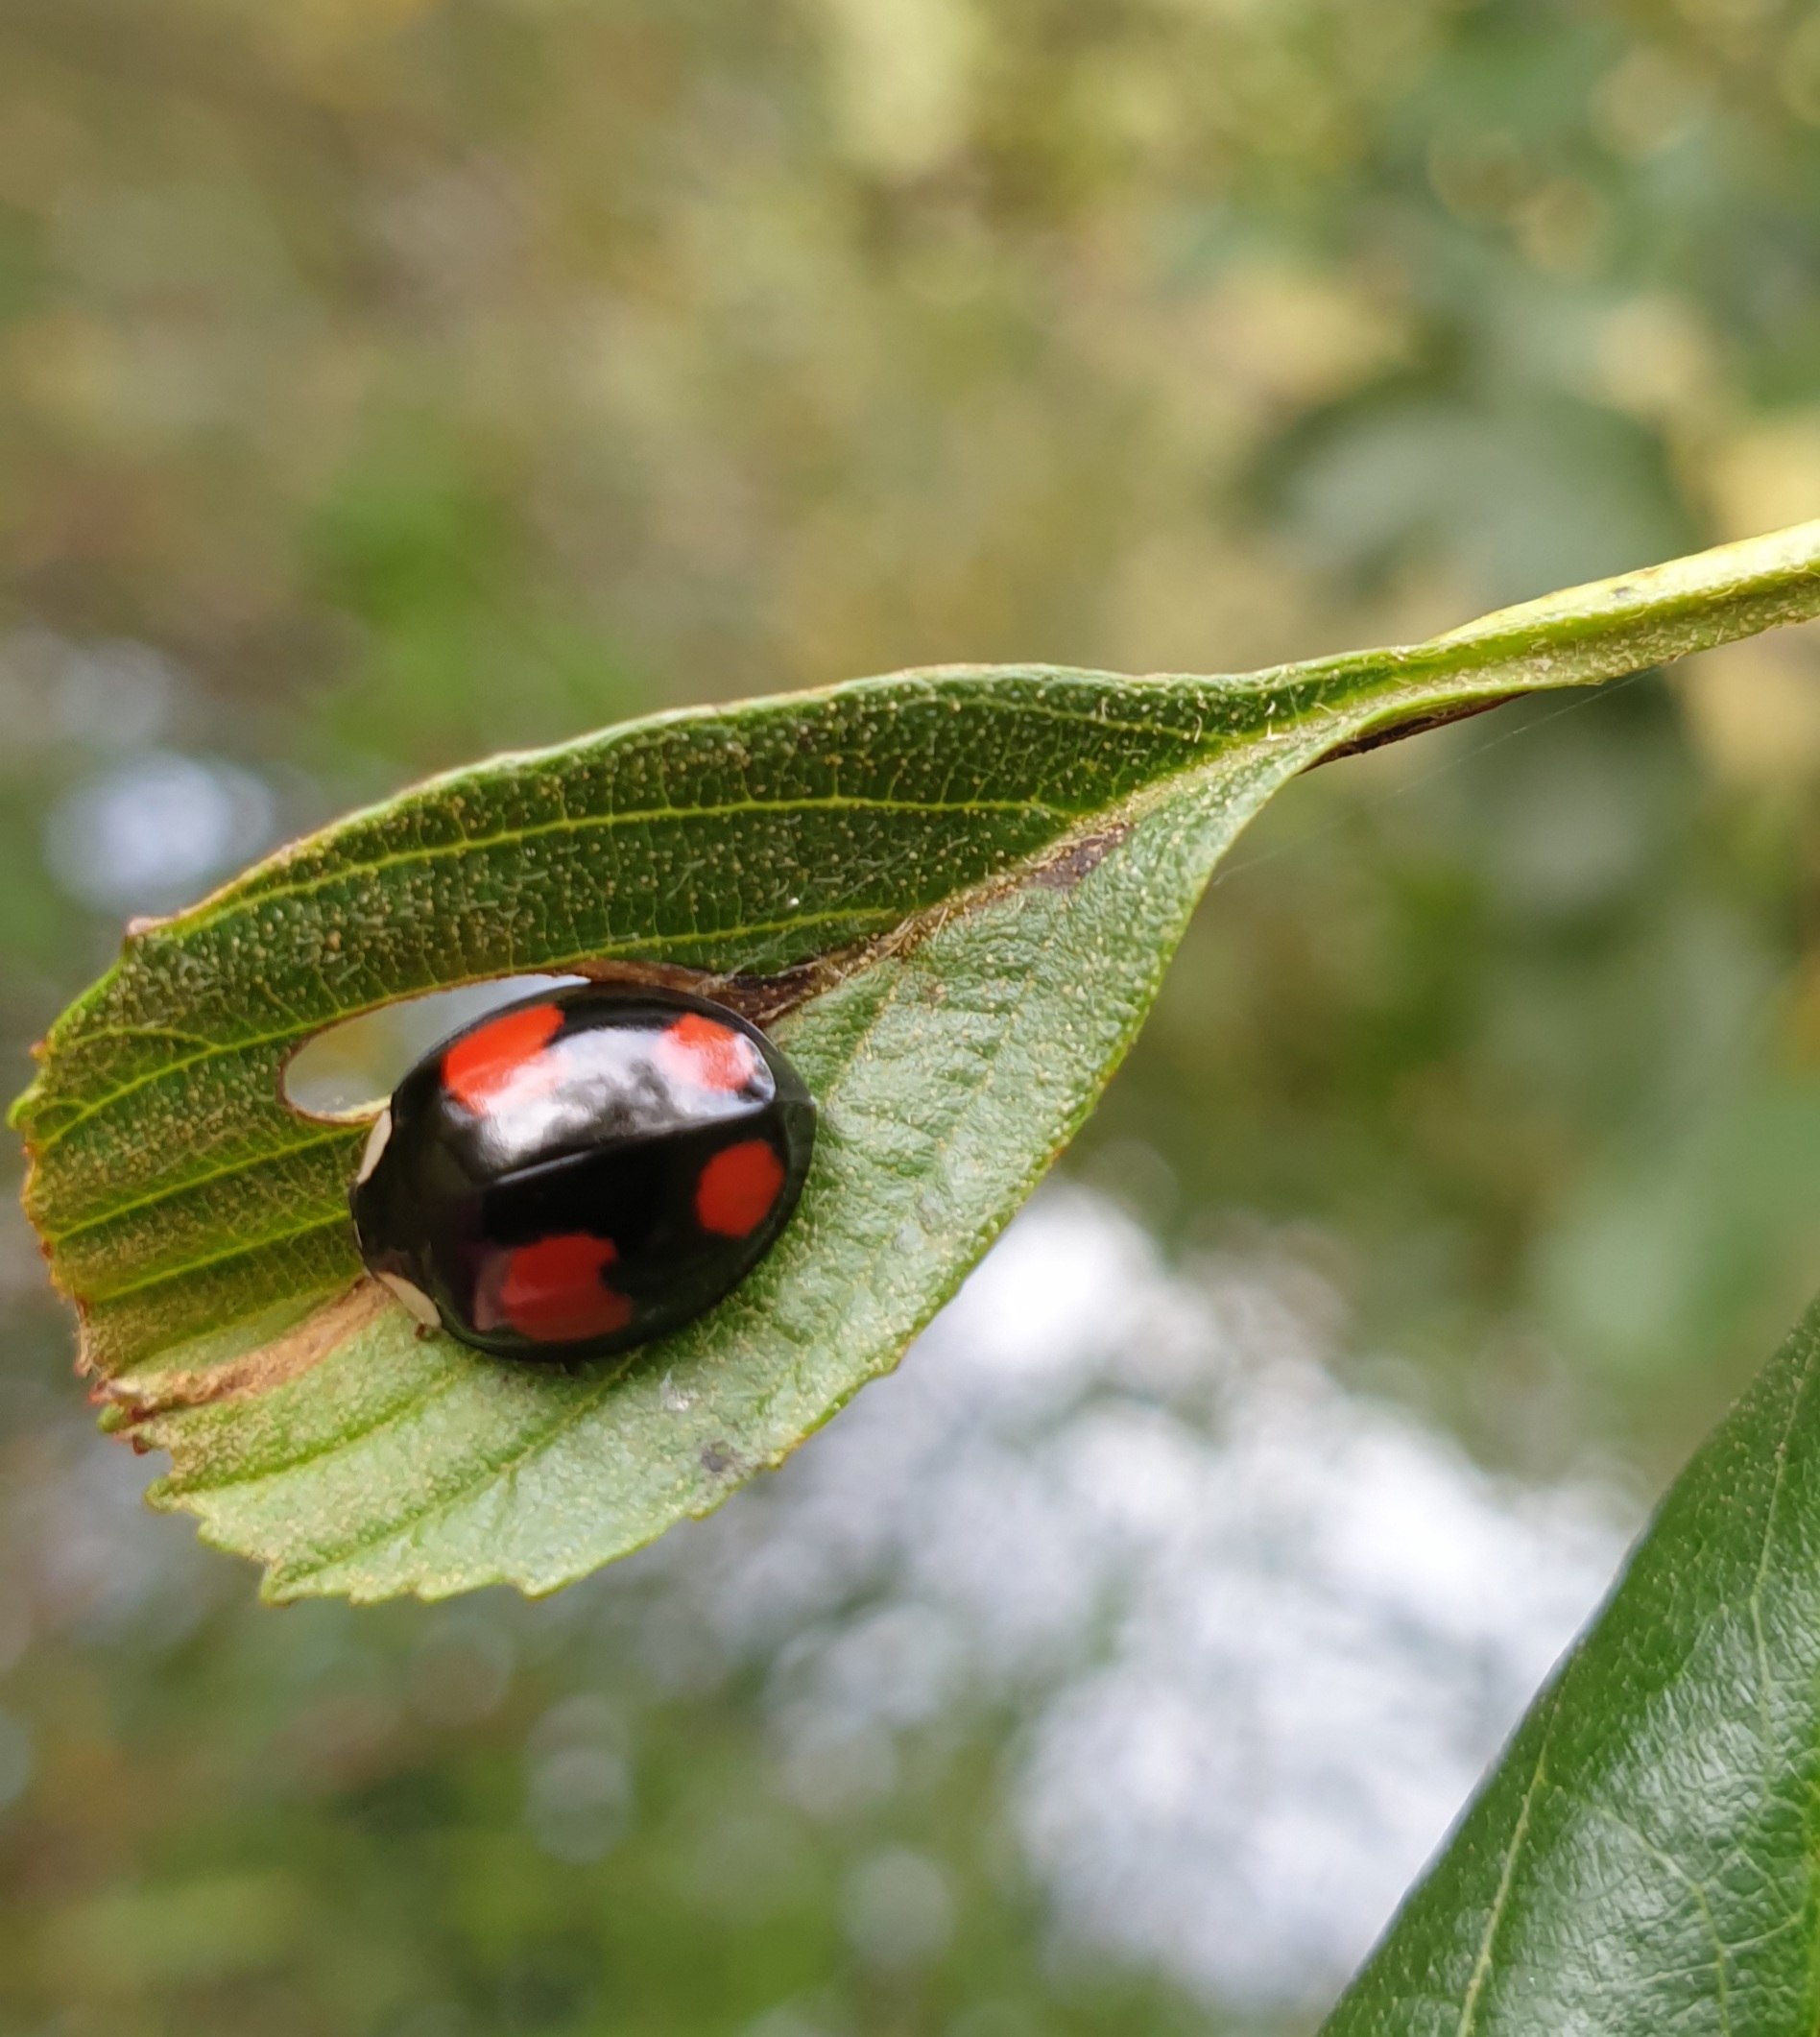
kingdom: Animalia
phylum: Arthropoda
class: Insecta
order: Coleoptera
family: Coccinellidae
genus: Harmonia
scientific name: Harmonia axyridis
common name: Harlekinmariehøne
